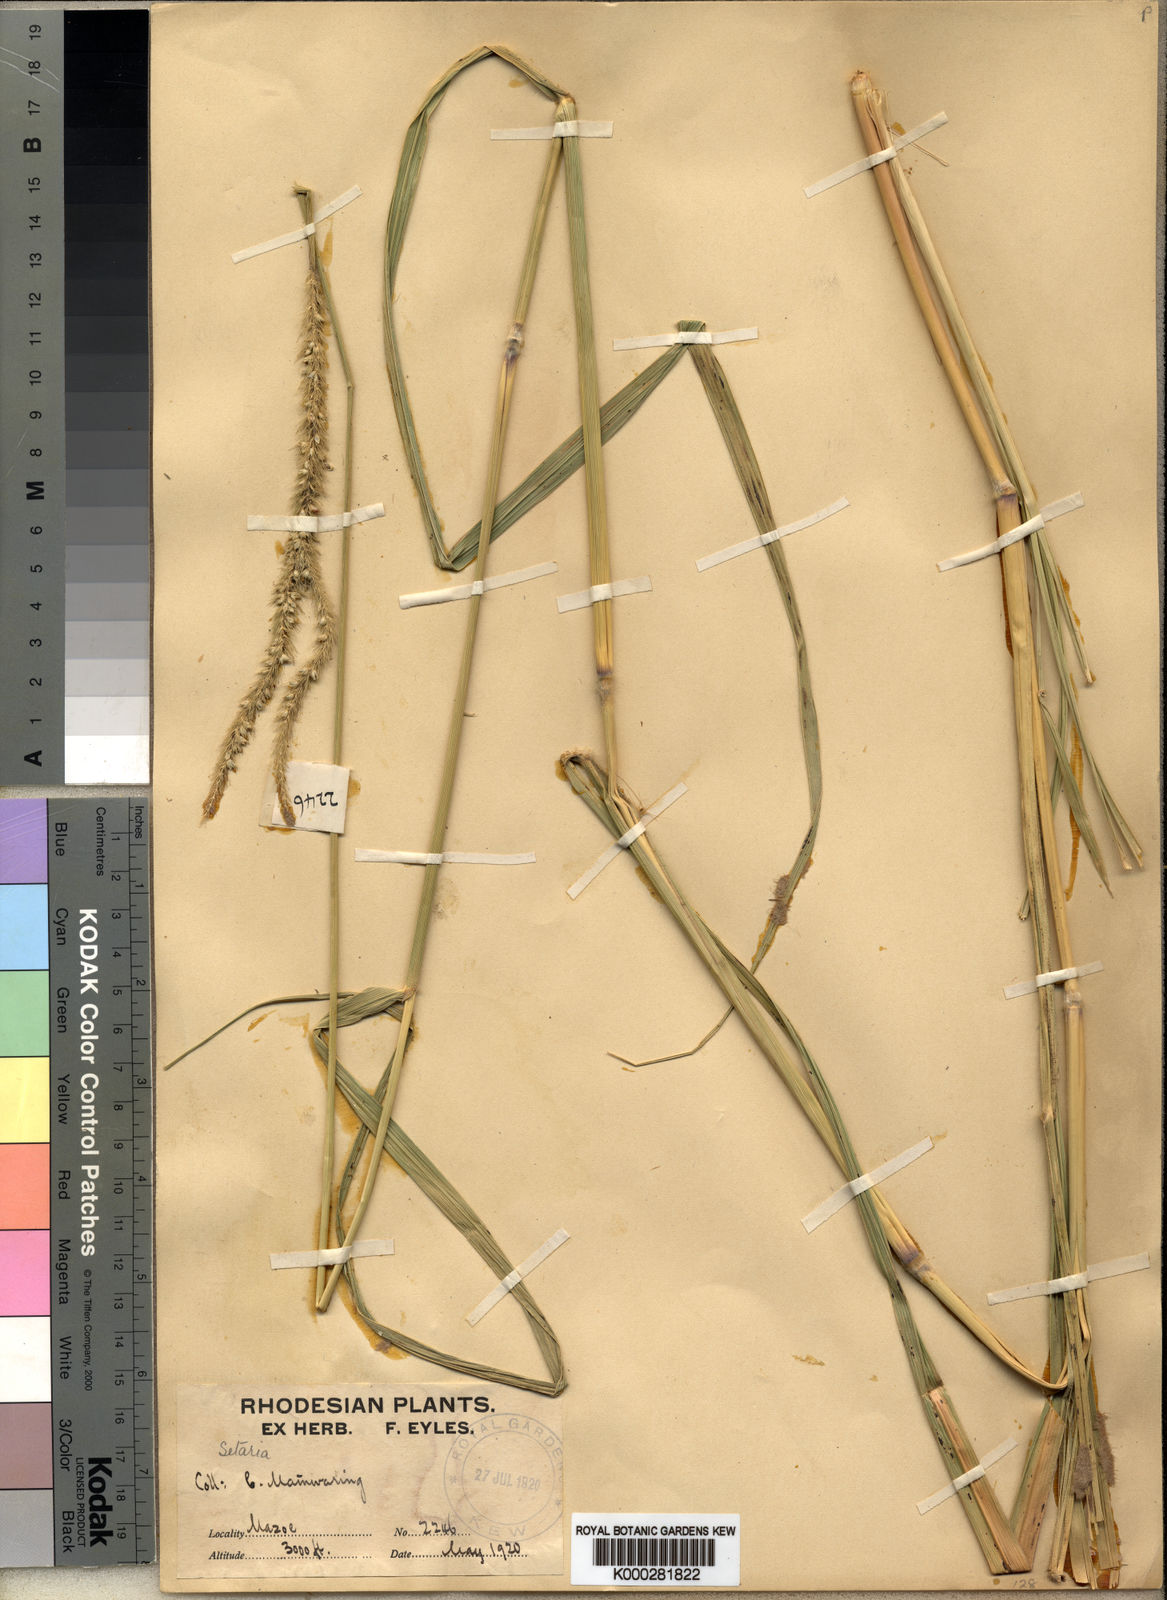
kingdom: Plantae
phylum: Tracheophyta
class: Liliopsida
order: Poales
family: Poaceae
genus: Setaria
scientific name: Setaria incrassata
